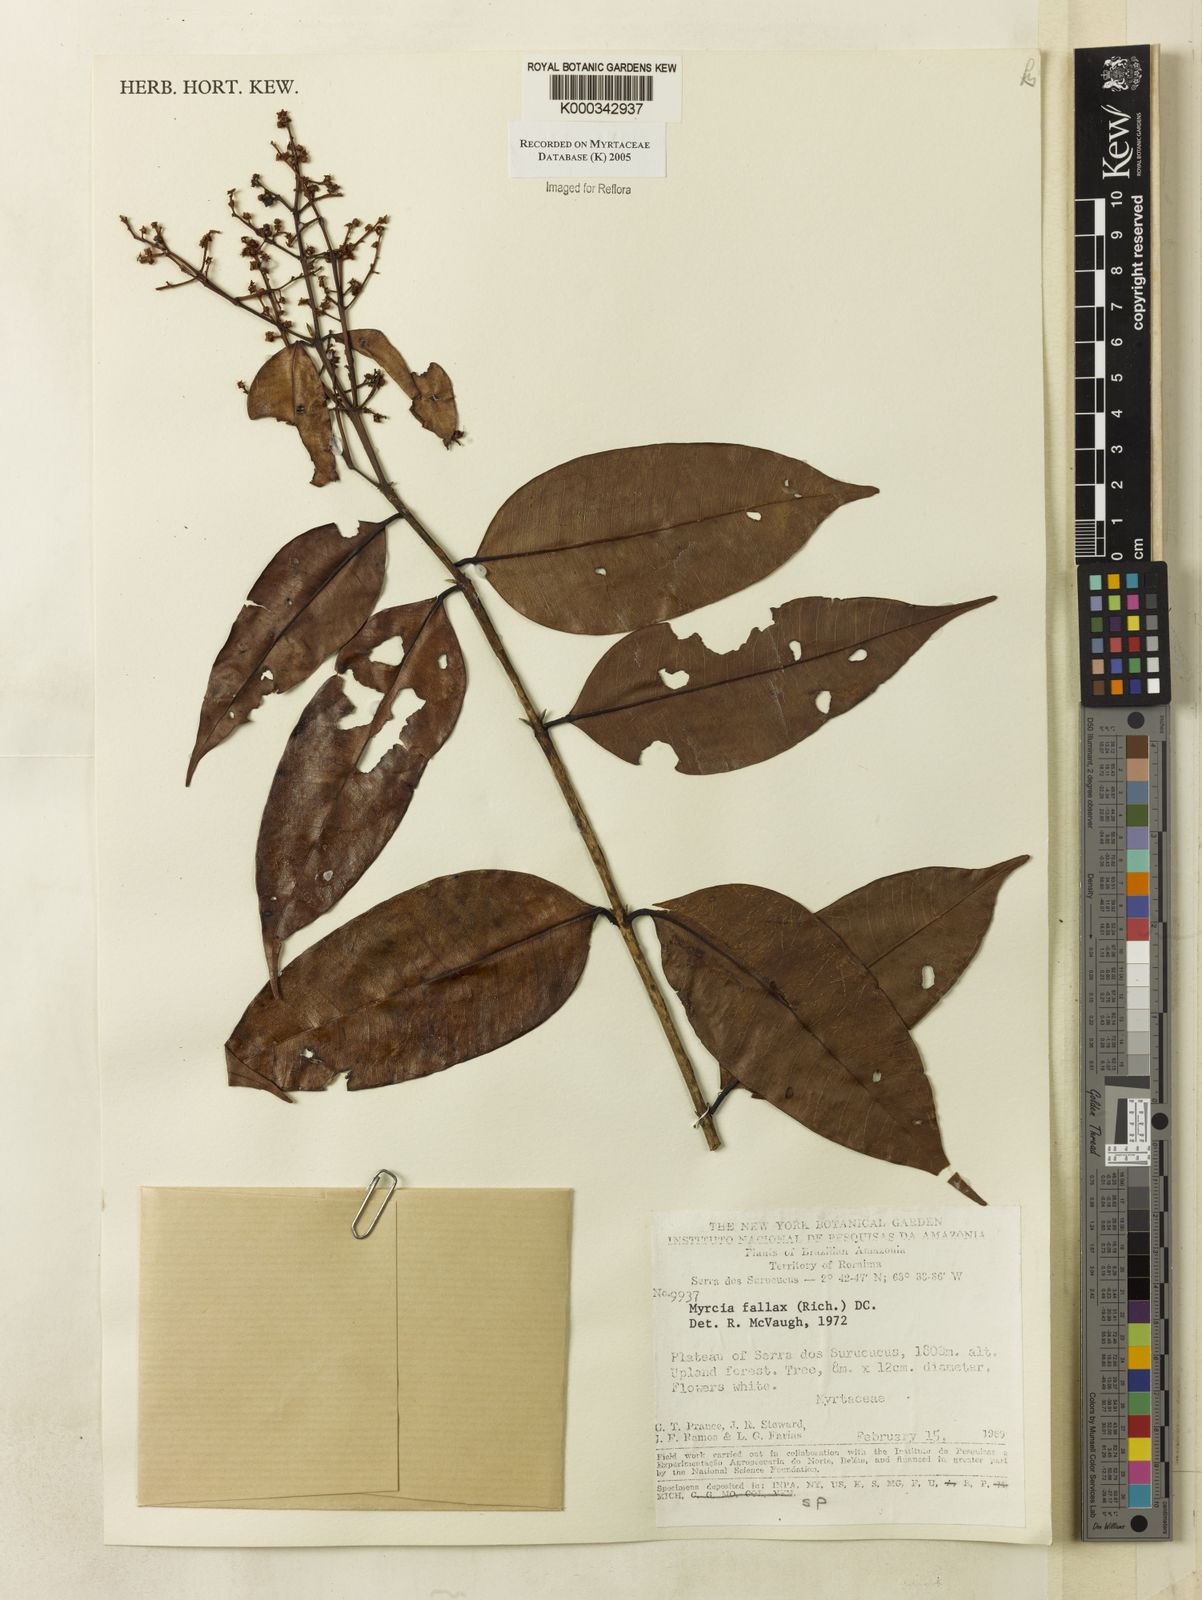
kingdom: Plantae
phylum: Tracheophyta
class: Magnoliopsida
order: Myrtales
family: Myrtaceae
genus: Myrcia
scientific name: Myrcia splendens
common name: Surinam cherry
